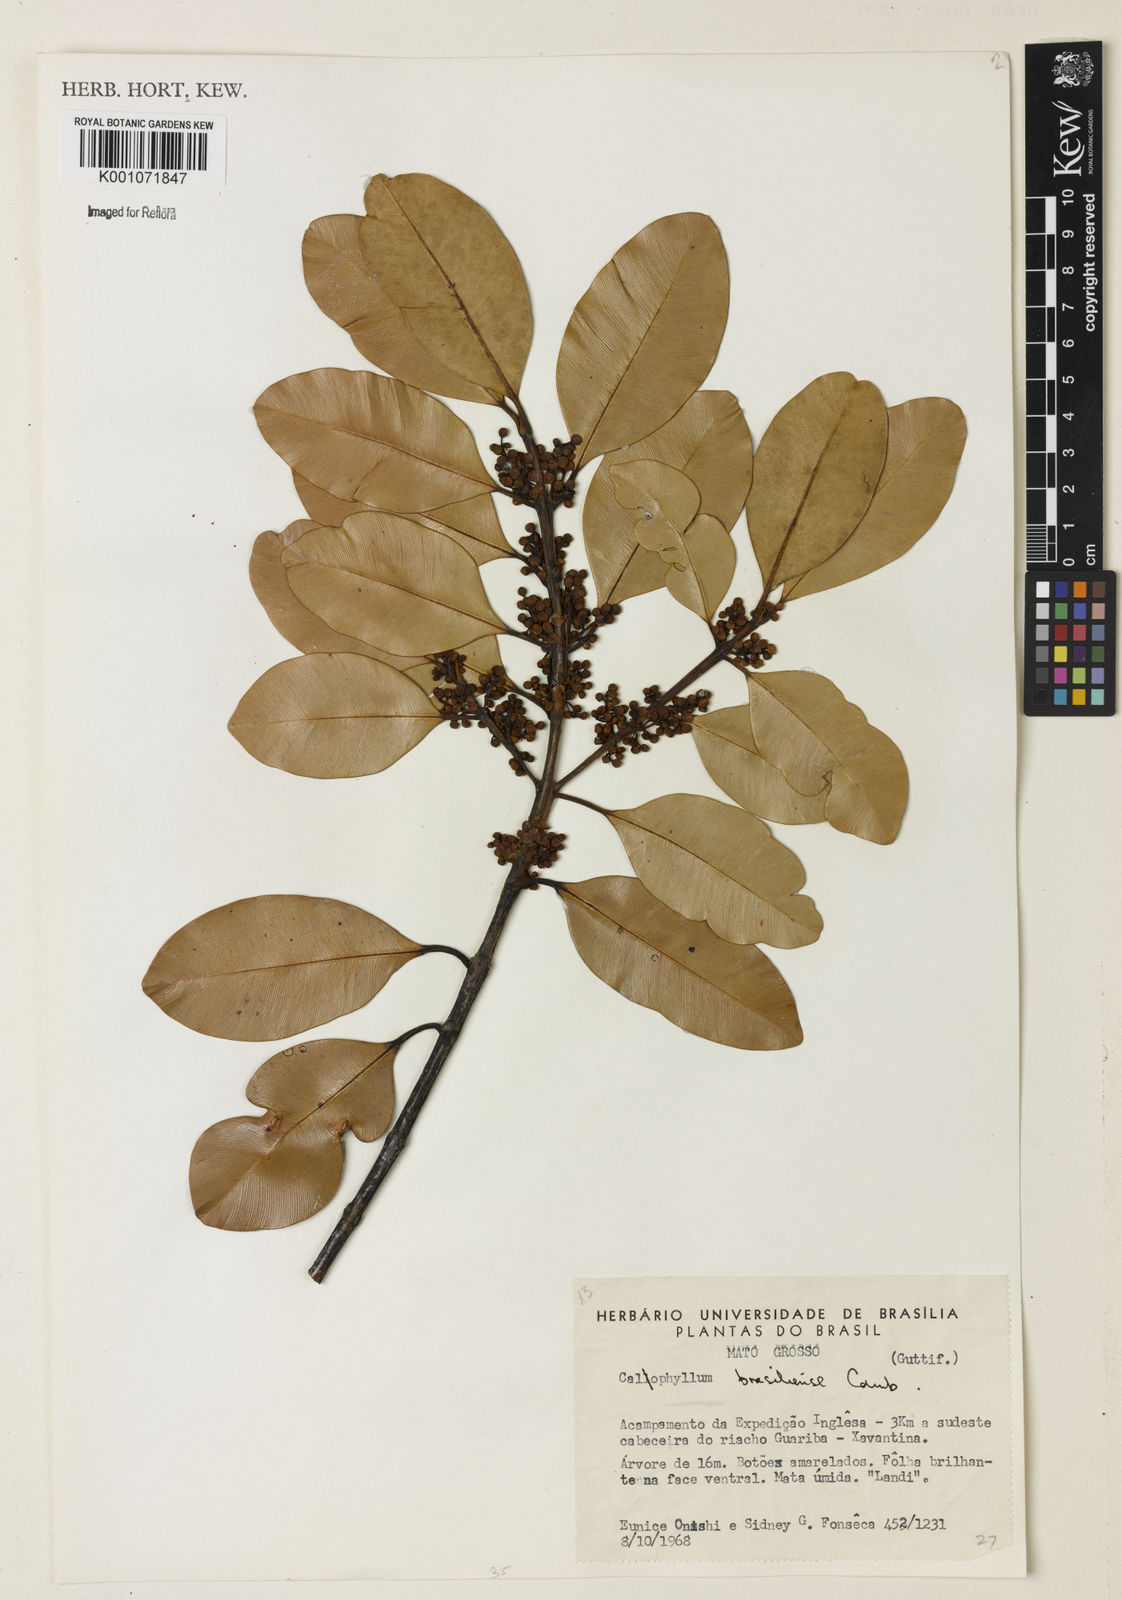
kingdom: Plantae
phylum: Tracheophyta
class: Magnoliopsida
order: Malpighiales
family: Calophyllaceae
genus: Calophyllum
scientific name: Calophyllum brasiliense
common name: Santa maria
